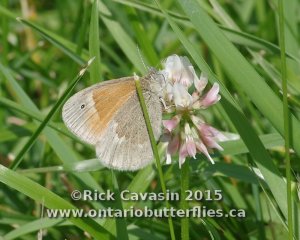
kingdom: Animalia
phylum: Arthropoda
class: Insecta
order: Lepidoptera
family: Nymphalidae
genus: Coenonympha
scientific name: Coenonympha tullia
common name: Large Heath
